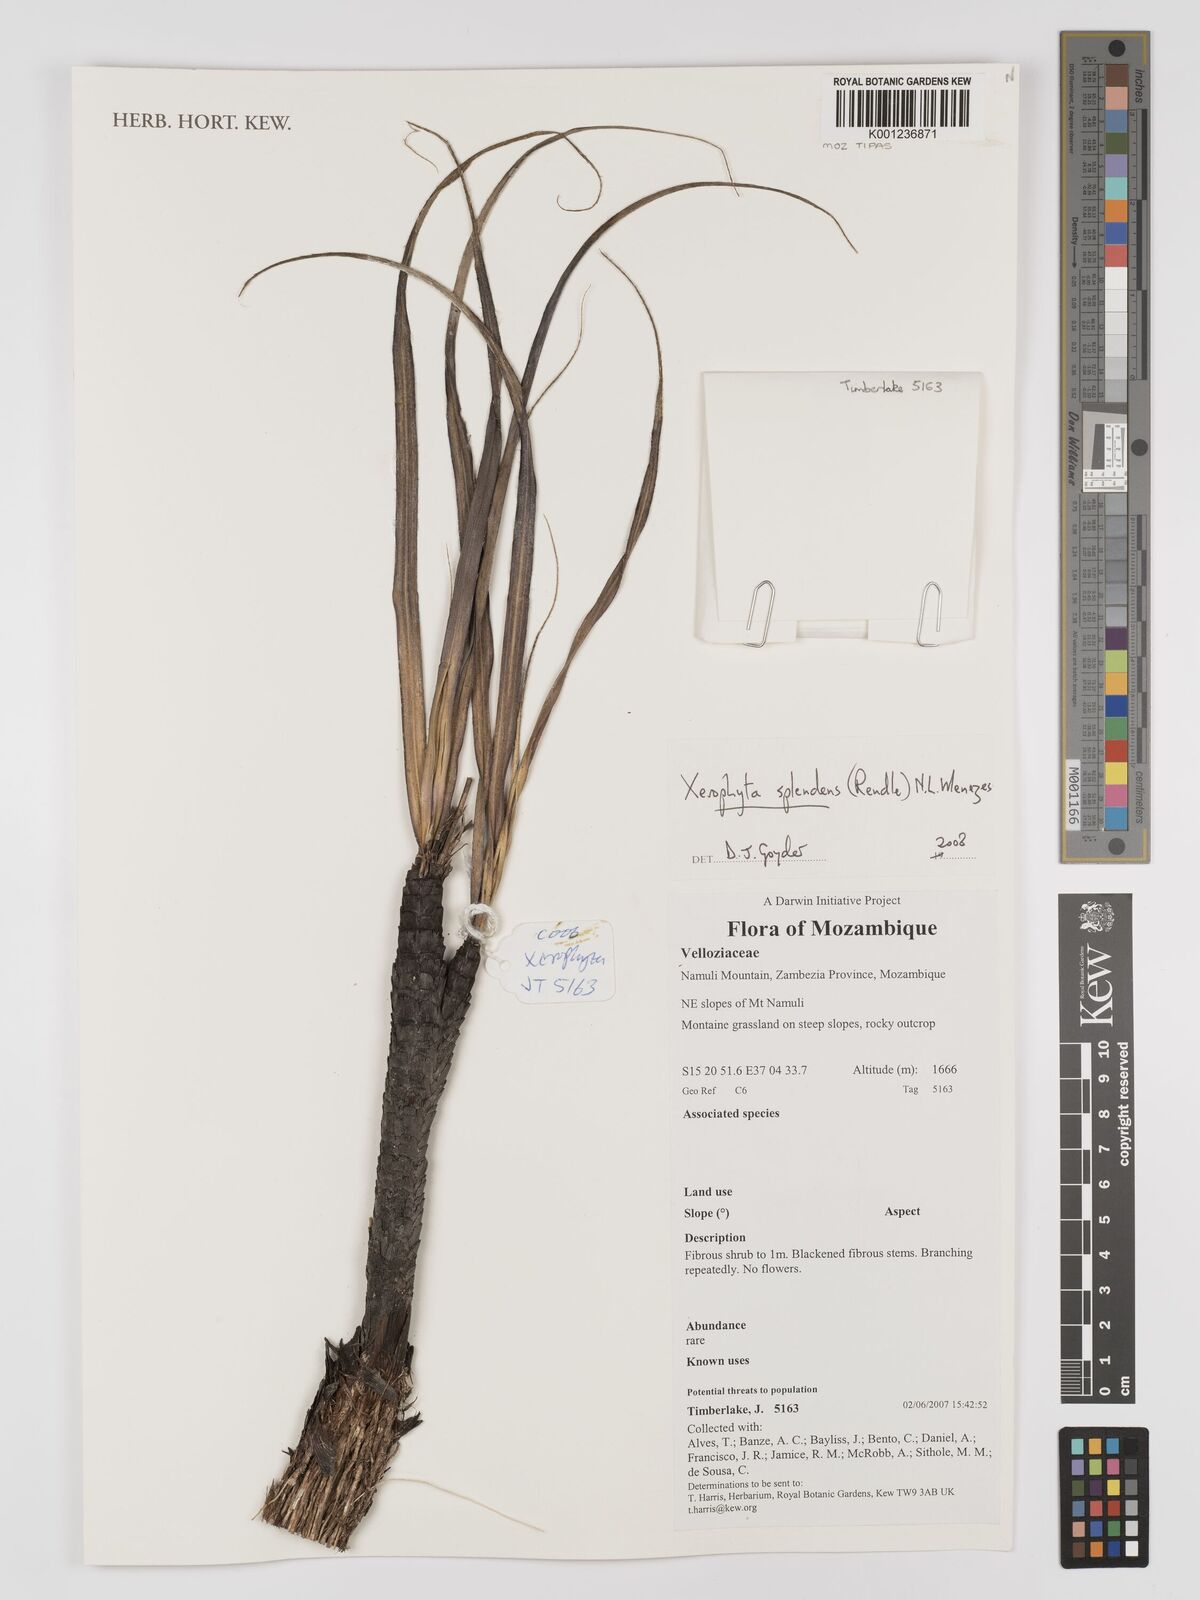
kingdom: Plantae
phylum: Tracheophyta
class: Liliopsida
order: Pandanales
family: Velloziaceae
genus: Xerophyta
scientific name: Xerophyta splendens
